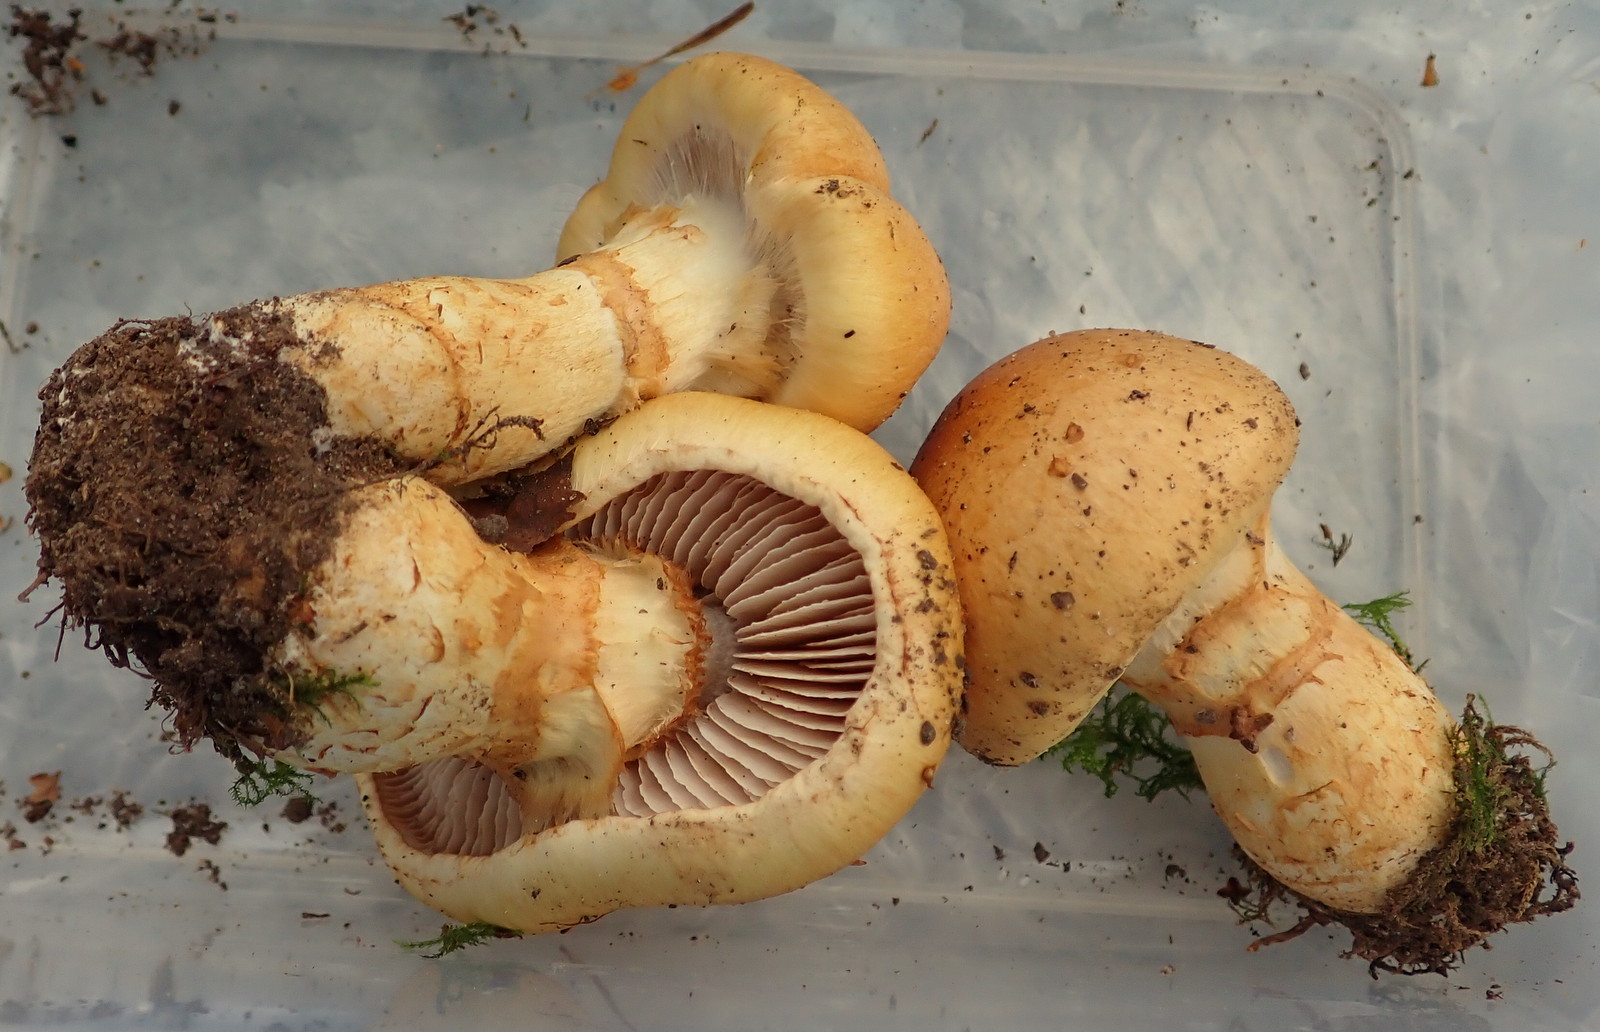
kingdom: Fungi
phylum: Basidiomycota
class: Agaricomycetes
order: Agaricales
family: Cortinariaceae
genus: Phlegmacium
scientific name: Phlegmacium triumphans
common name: gulbæltet slørhat
